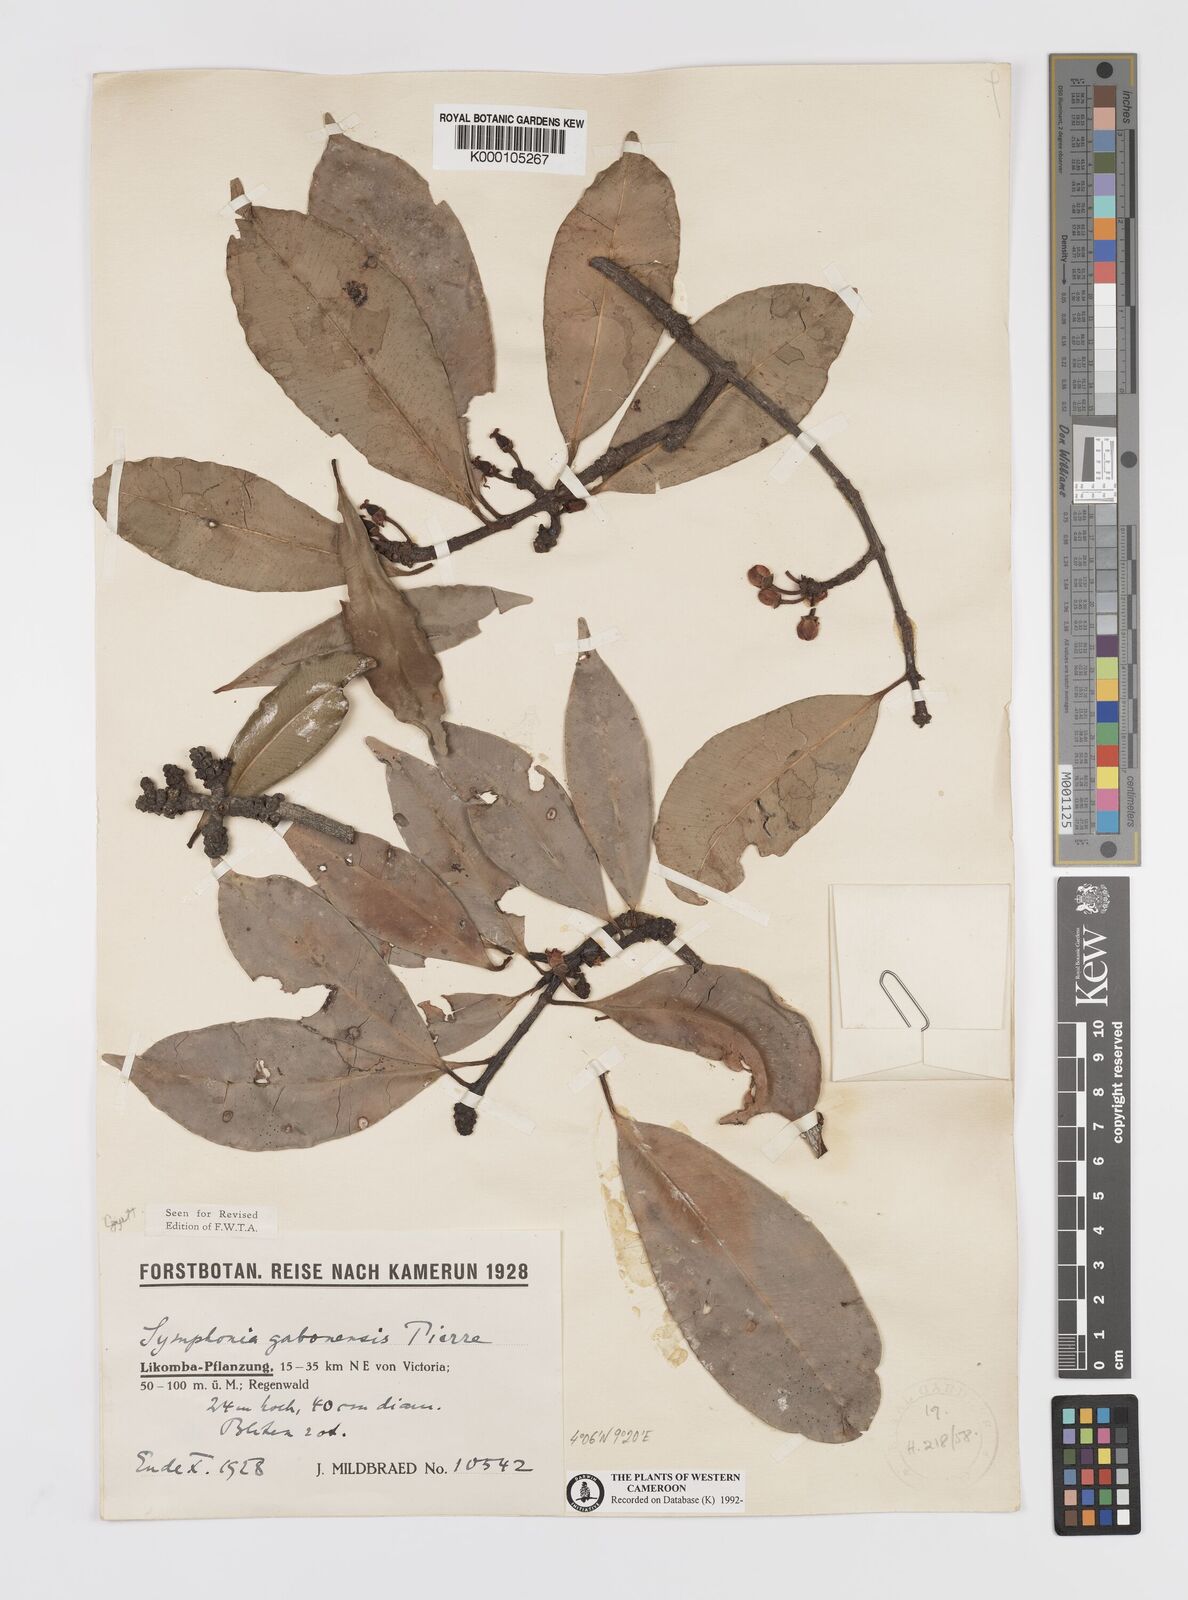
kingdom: Plantae
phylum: Tracheophyta
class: Magnoliopsida
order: Malpighiales
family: Clusiaceae
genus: Symphonia
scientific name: Symphonia globulifera
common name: Boarwood
